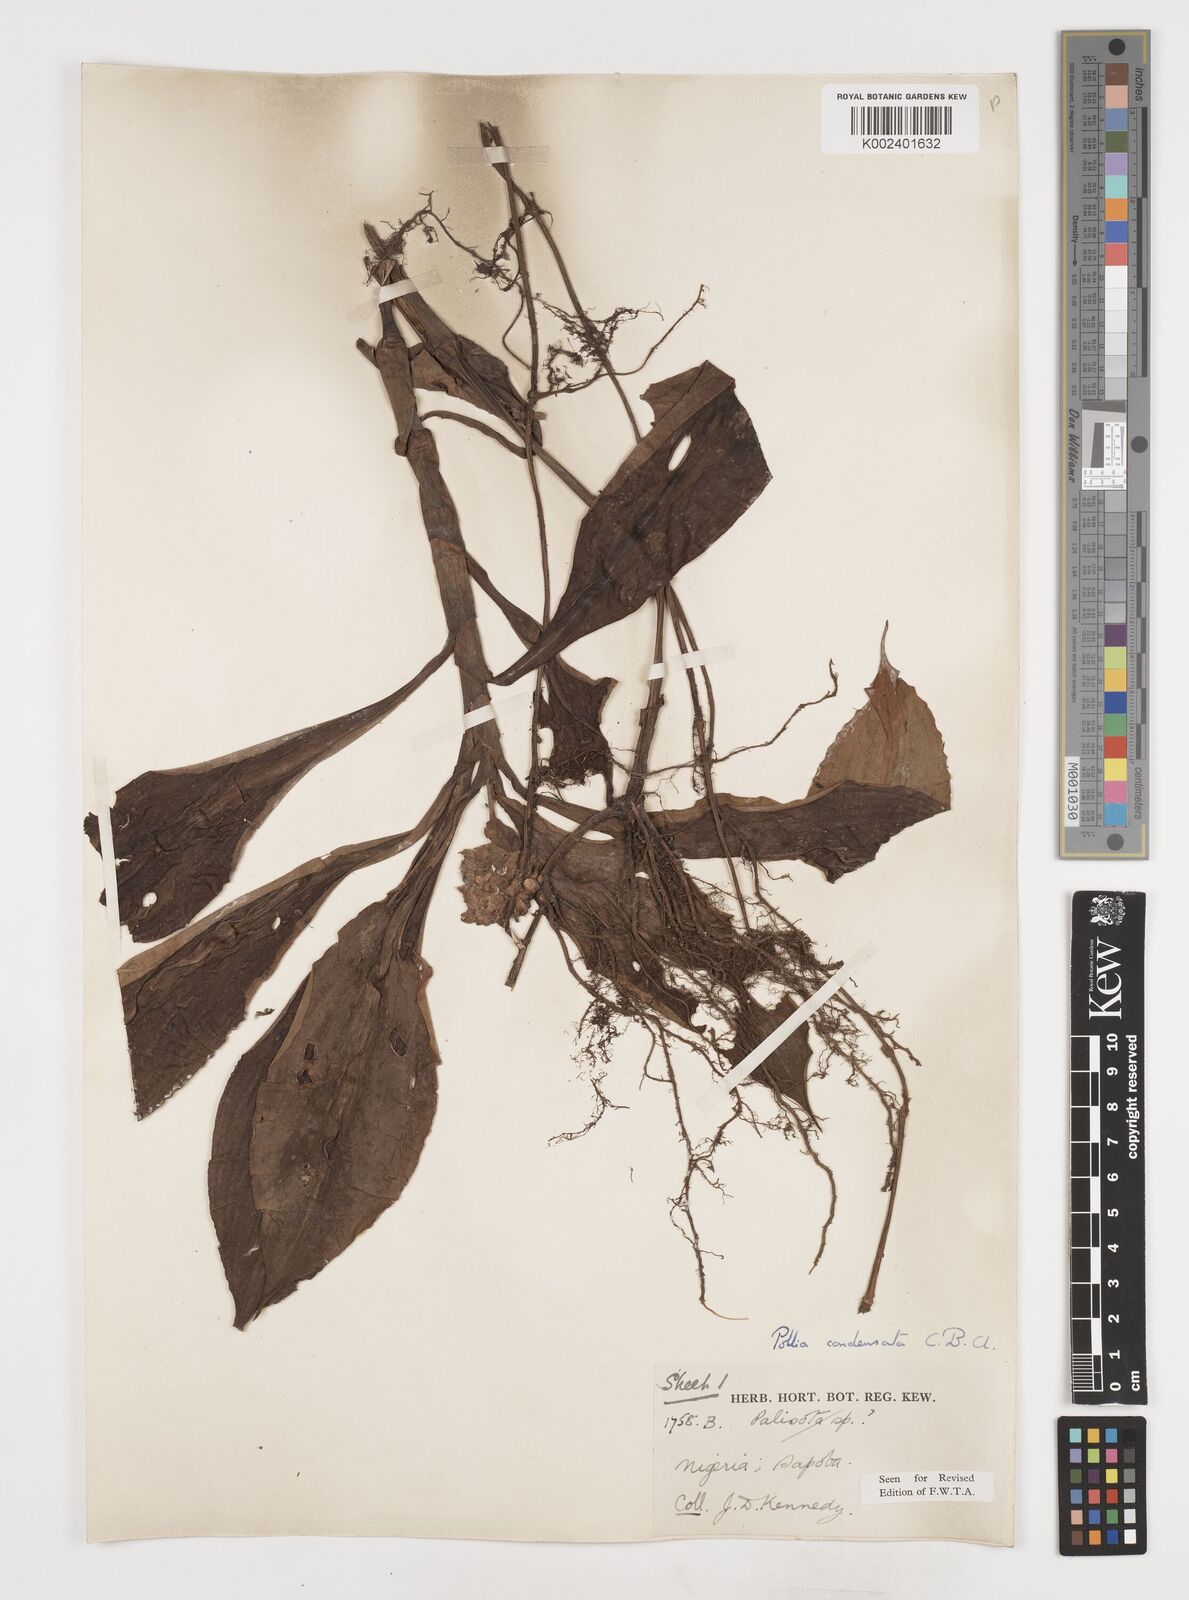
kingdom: Plantae
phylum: Tracheophyta
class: Liliopsida
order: Commelinales
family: Commelinaceae
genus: Pollia
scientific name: Pollia condensata
